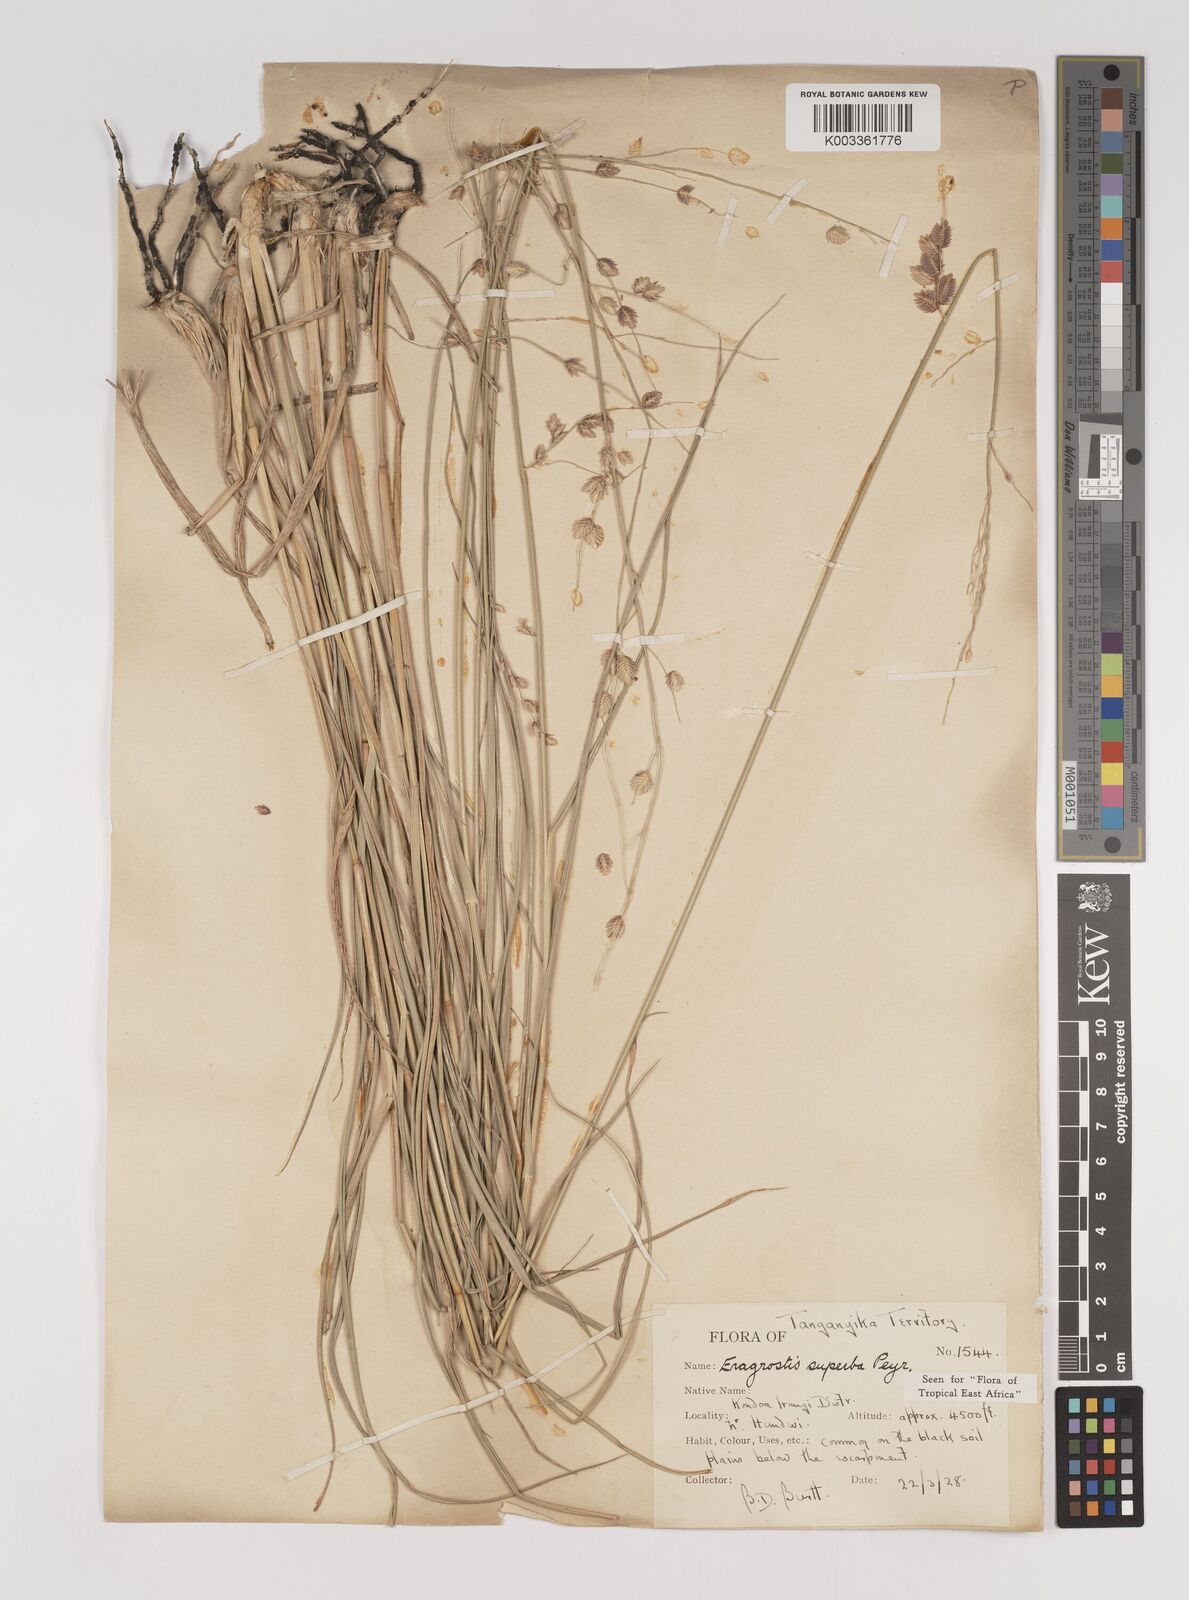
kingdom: Plantae
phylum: Tracheophyta
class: Liliopsida
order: Poales
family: Poaceae
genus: Eragrostis
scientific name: Eragrostis superba
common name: Wilman lovegrass
